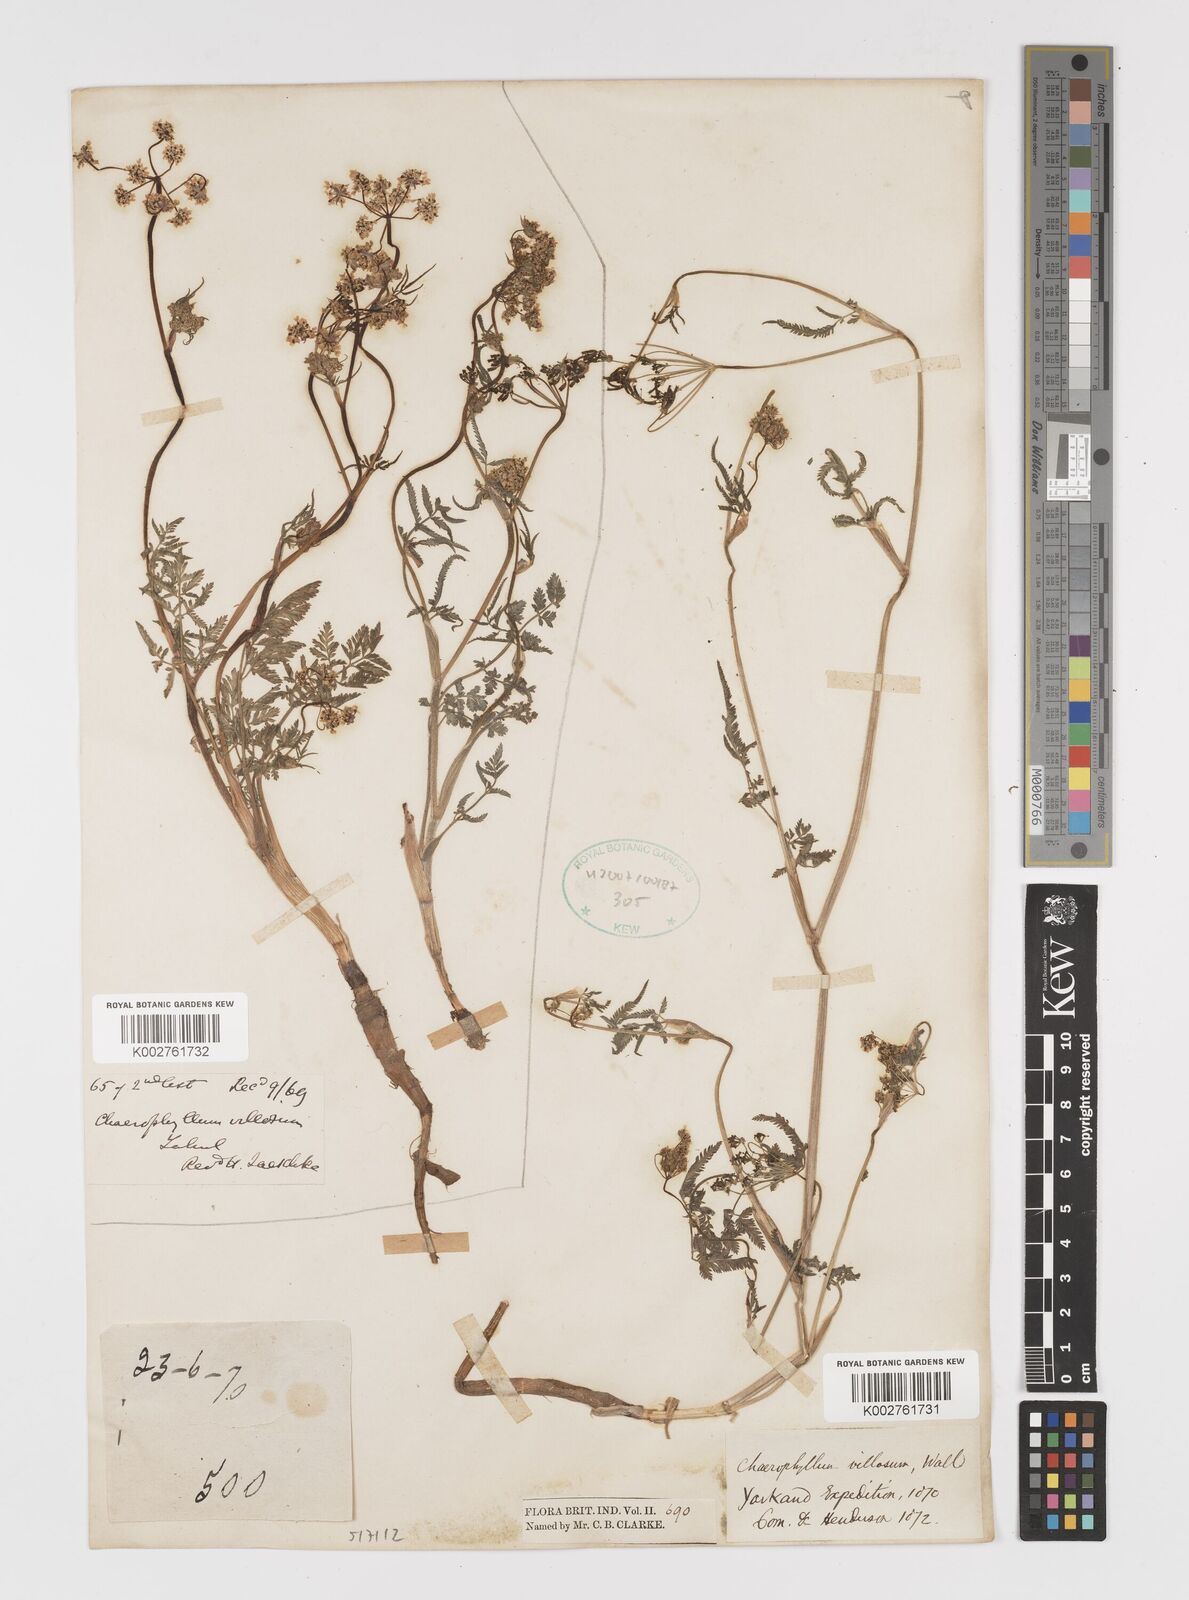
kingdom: Plantae
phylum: Tracheophyta
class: Magnoliopsida
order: Apiales
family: Apiaceae
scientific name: Apiaceae
